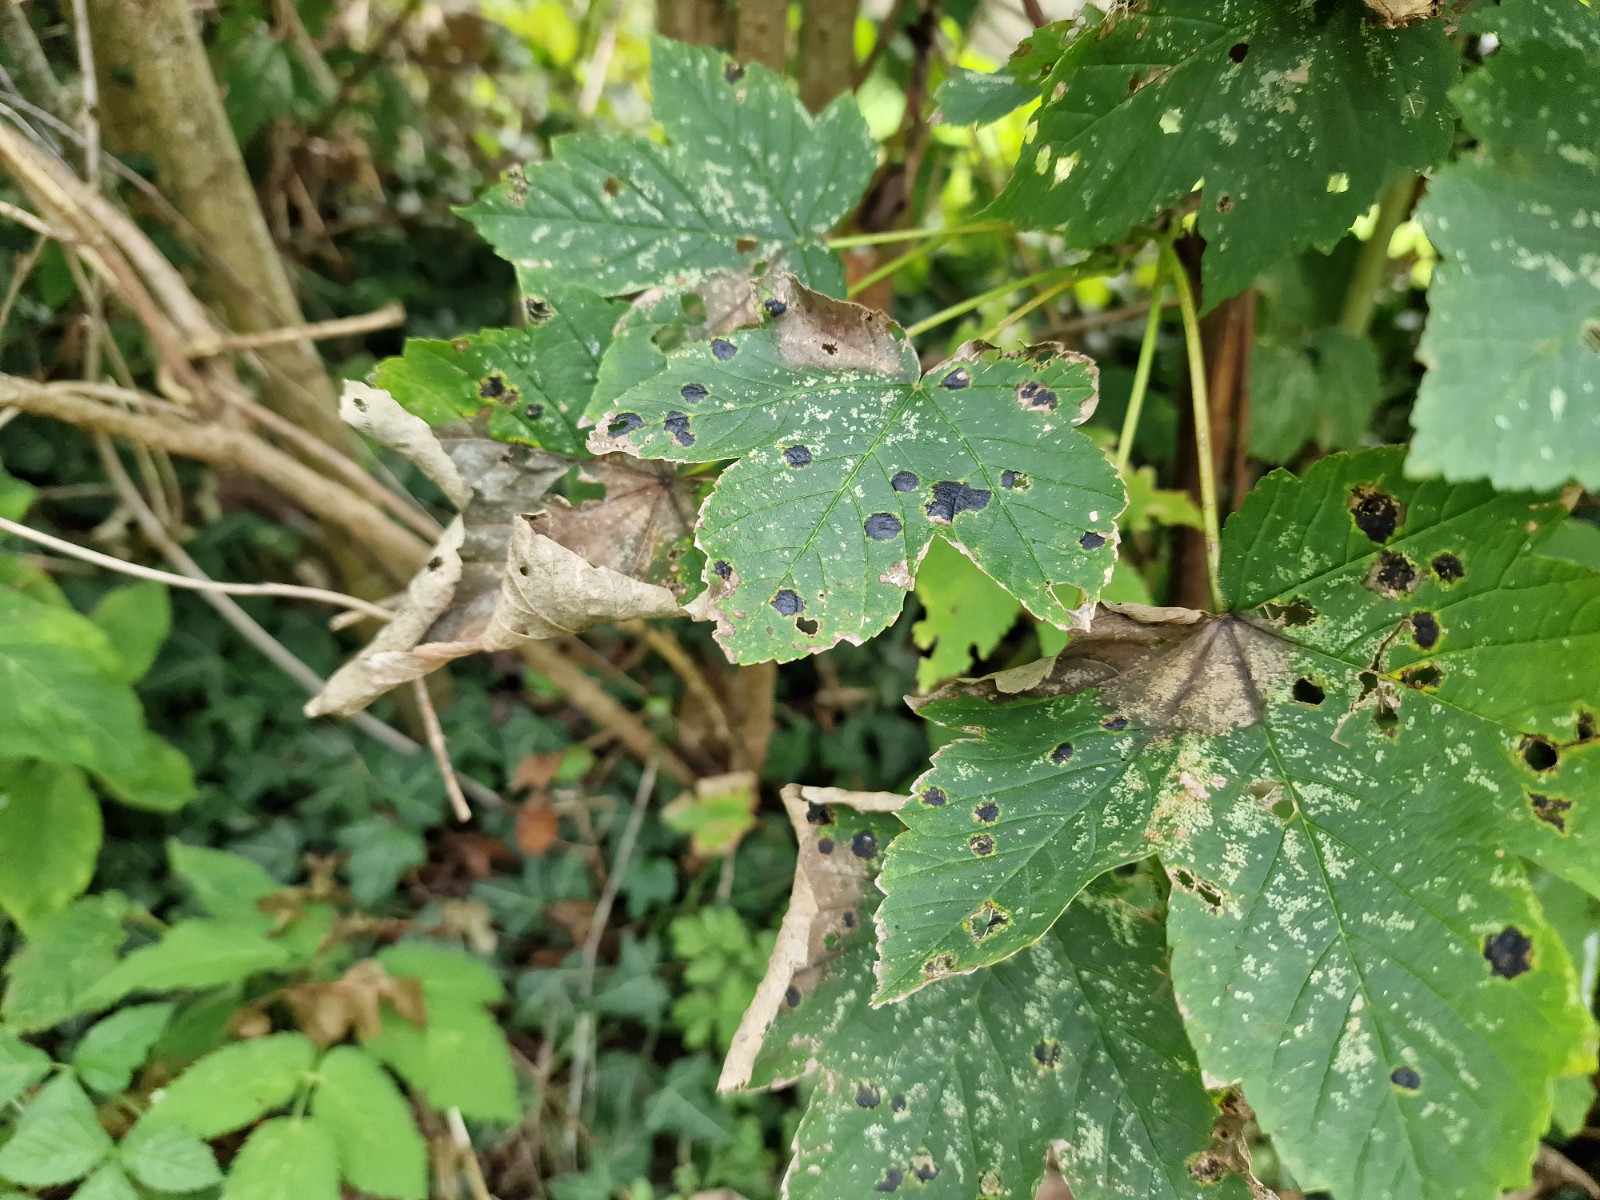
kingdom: Fungi
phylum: Ascomycota
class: Leotiomycetes
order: Rhytismatales
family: Rhytismataceae
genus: Rhytisma
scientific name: Rhytisma acerinum
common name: ahorn-rynkeplet
